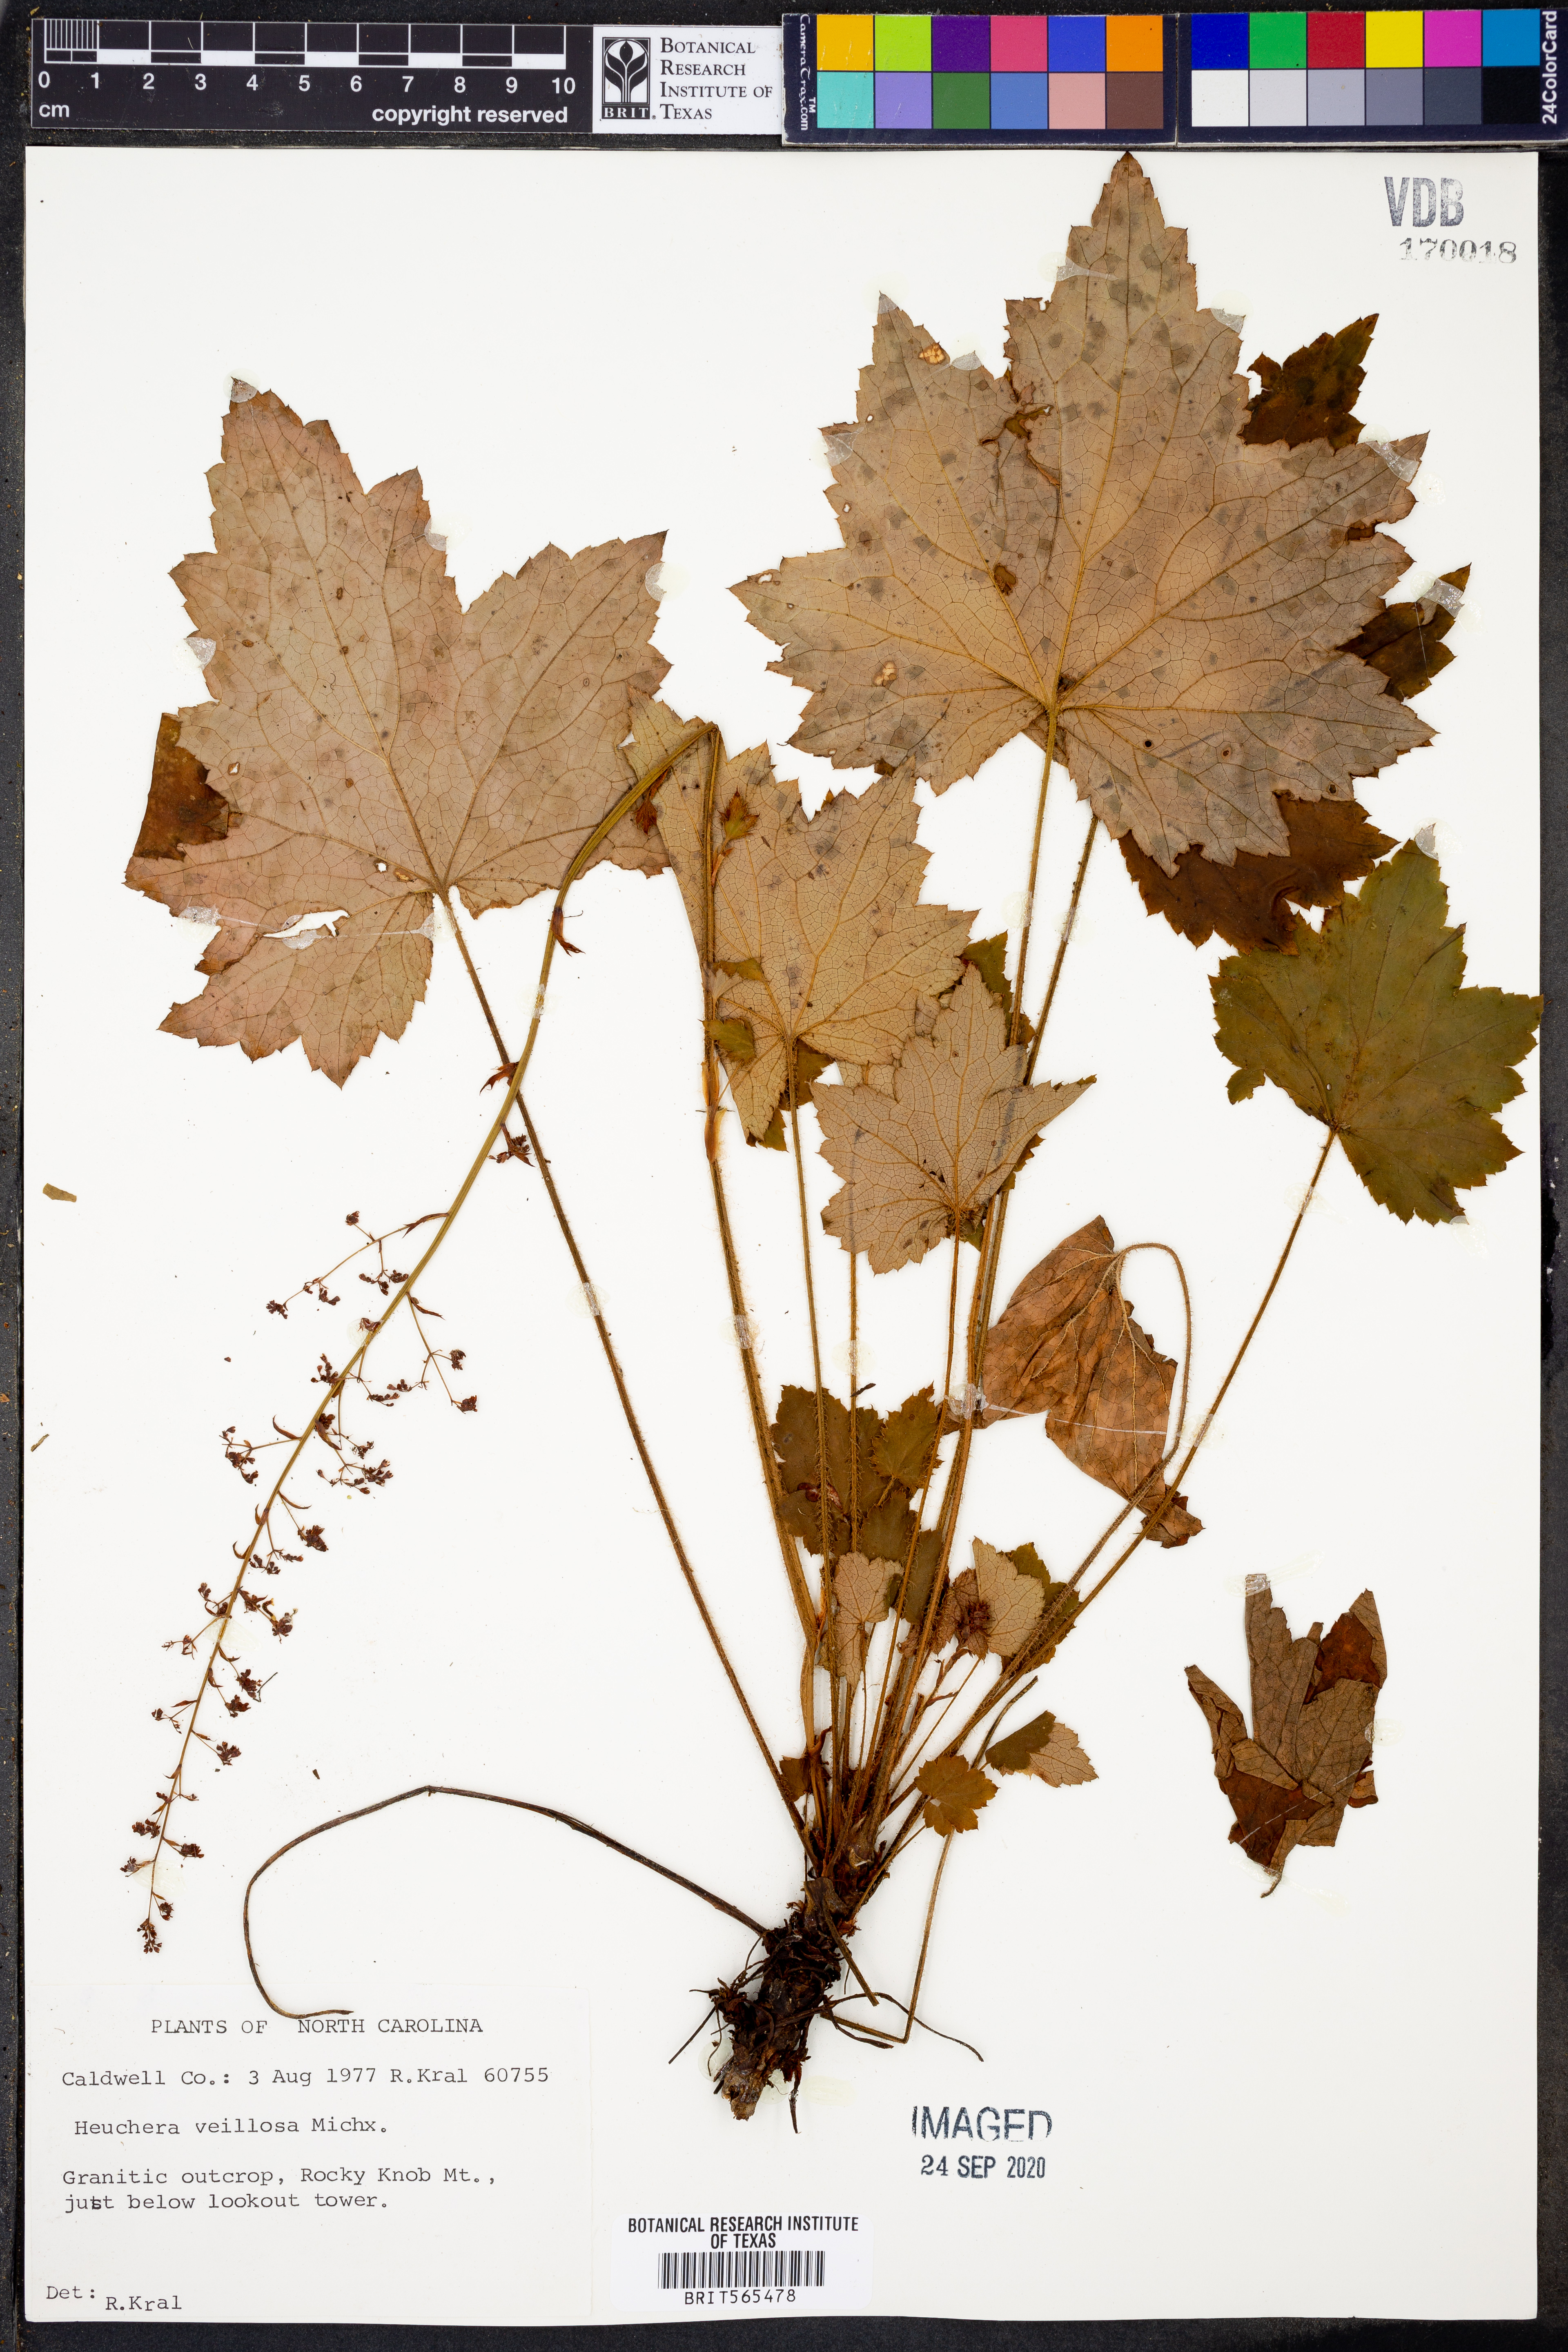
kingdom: Plantae
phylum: Tracheophyta
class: Magnoliopsida
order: Saxifragales
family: Saxifragaceae
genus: Heuchera
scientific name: Heuchera villosa
